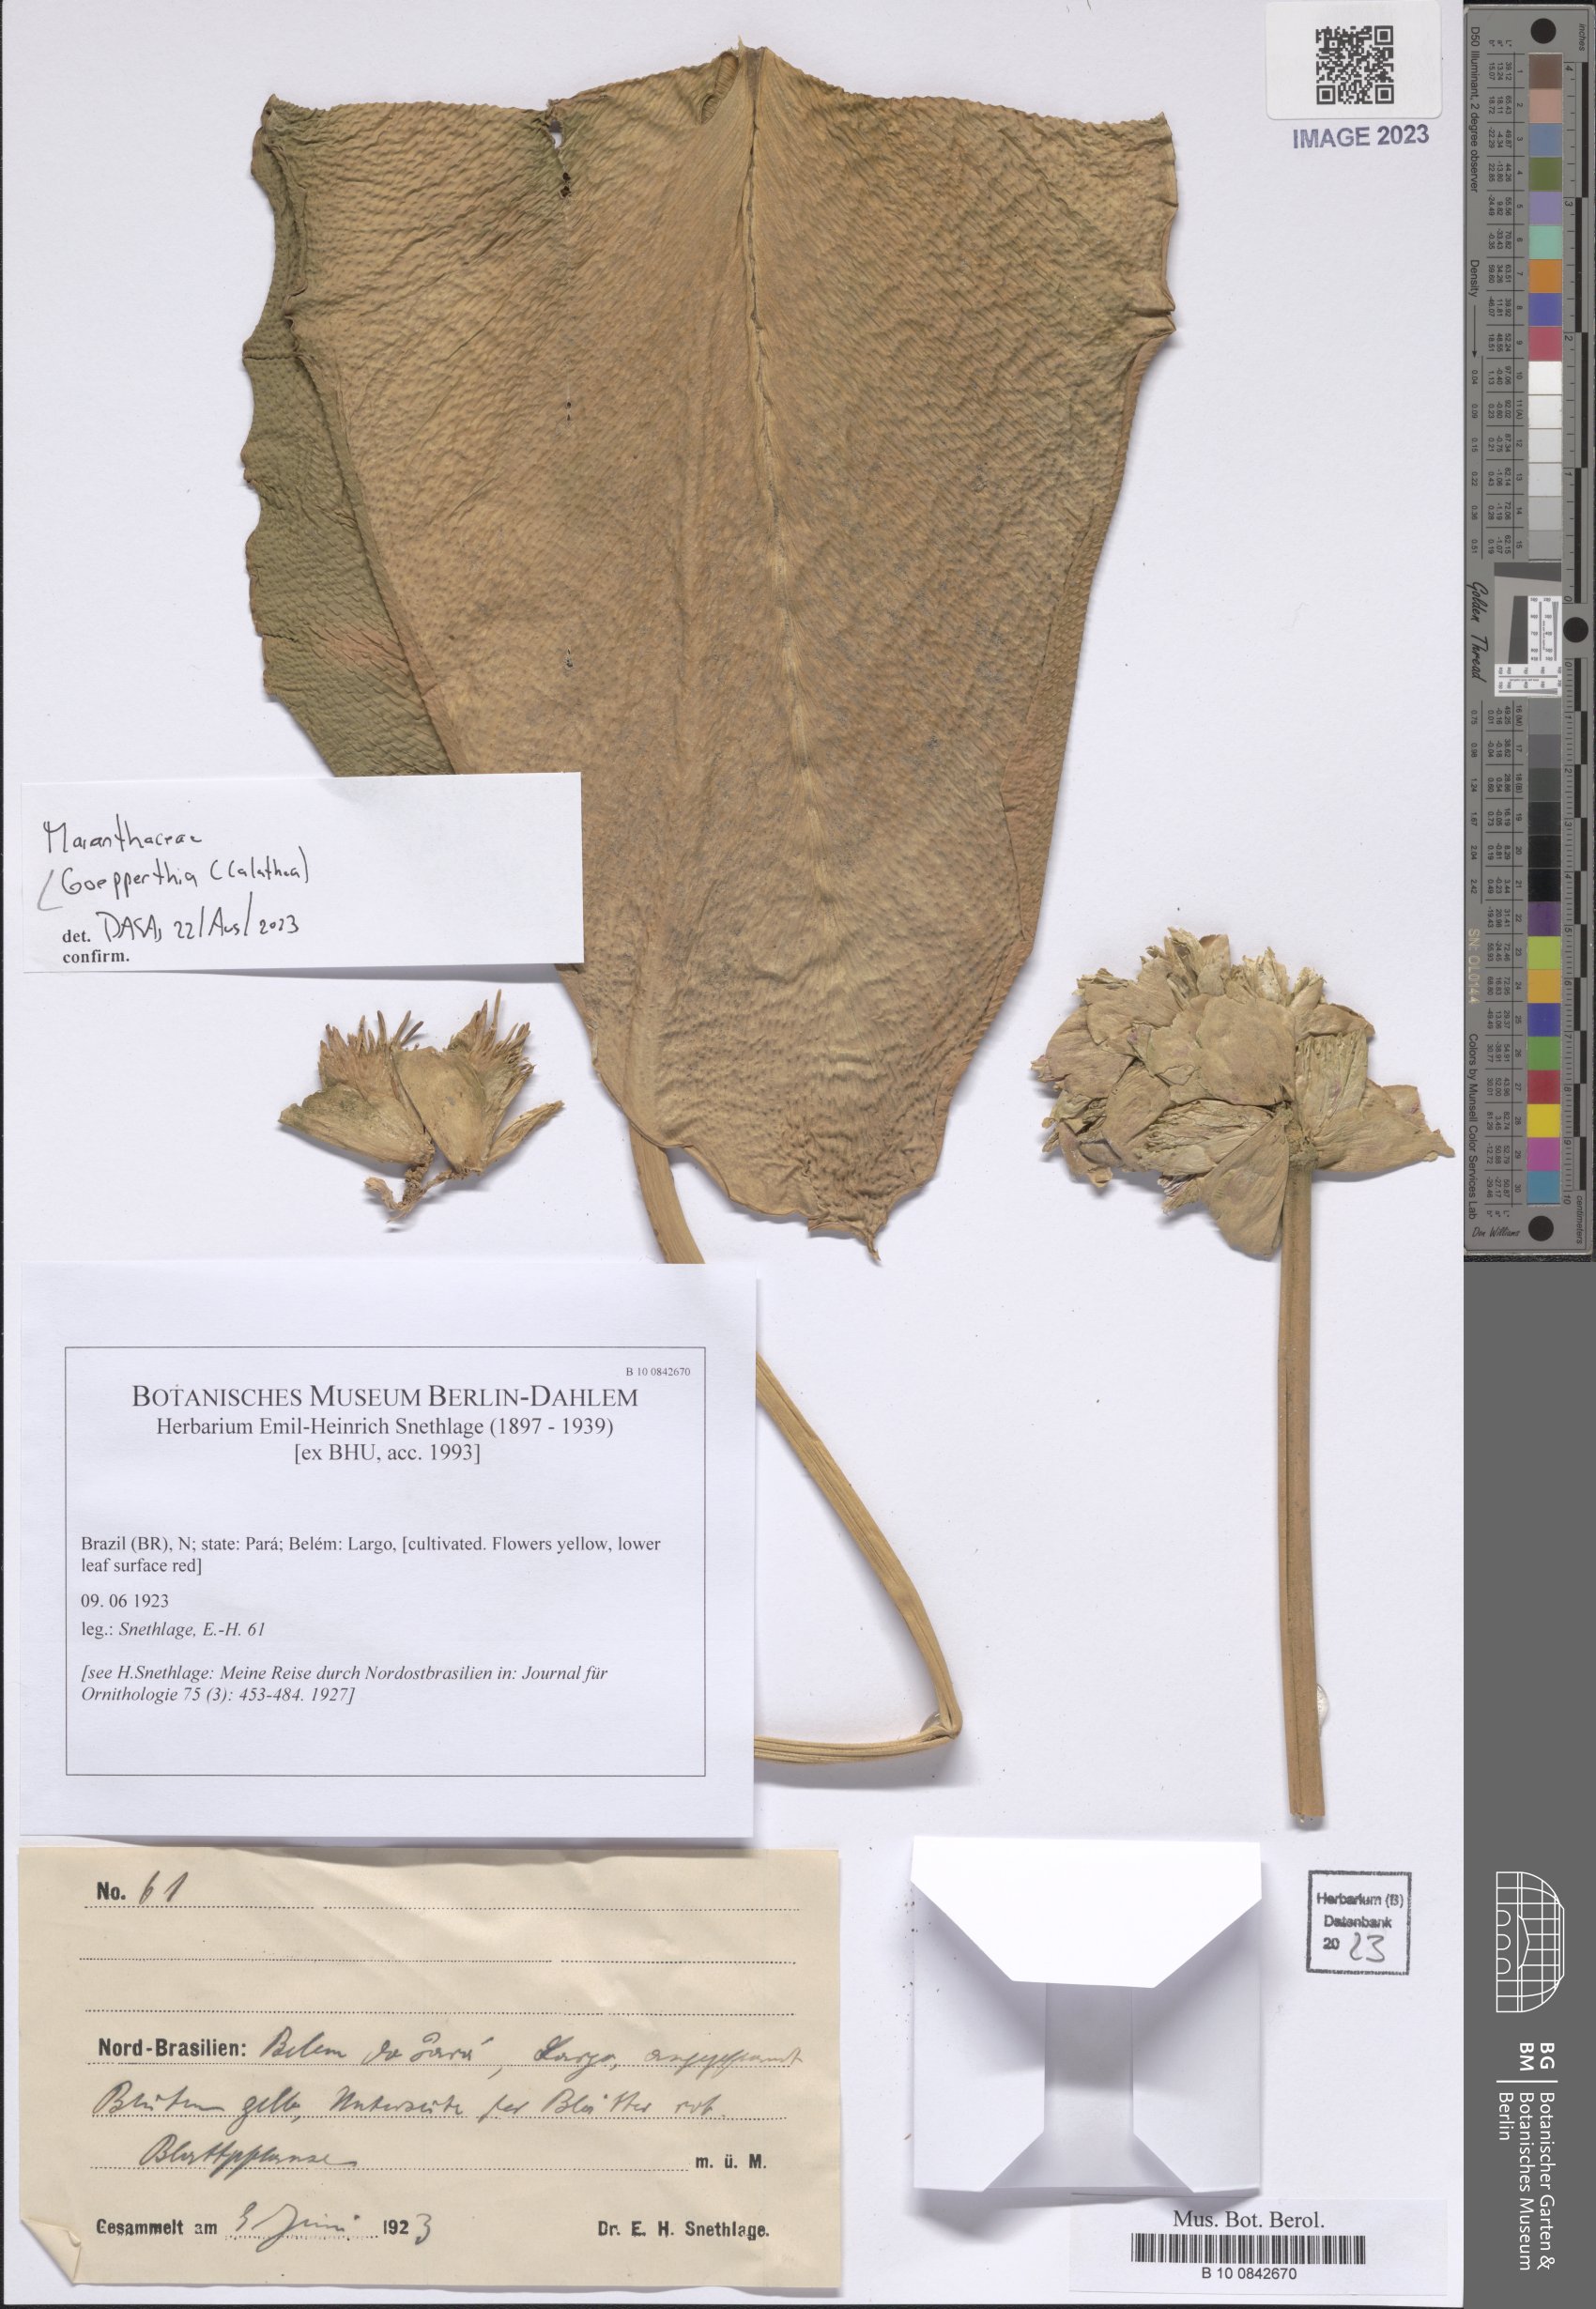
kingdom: Plantae
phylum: Tracheophyta
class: Liliopsida
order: Zingiberales
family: Marantaceae
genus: Goeppertia
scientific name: Goeppertia
